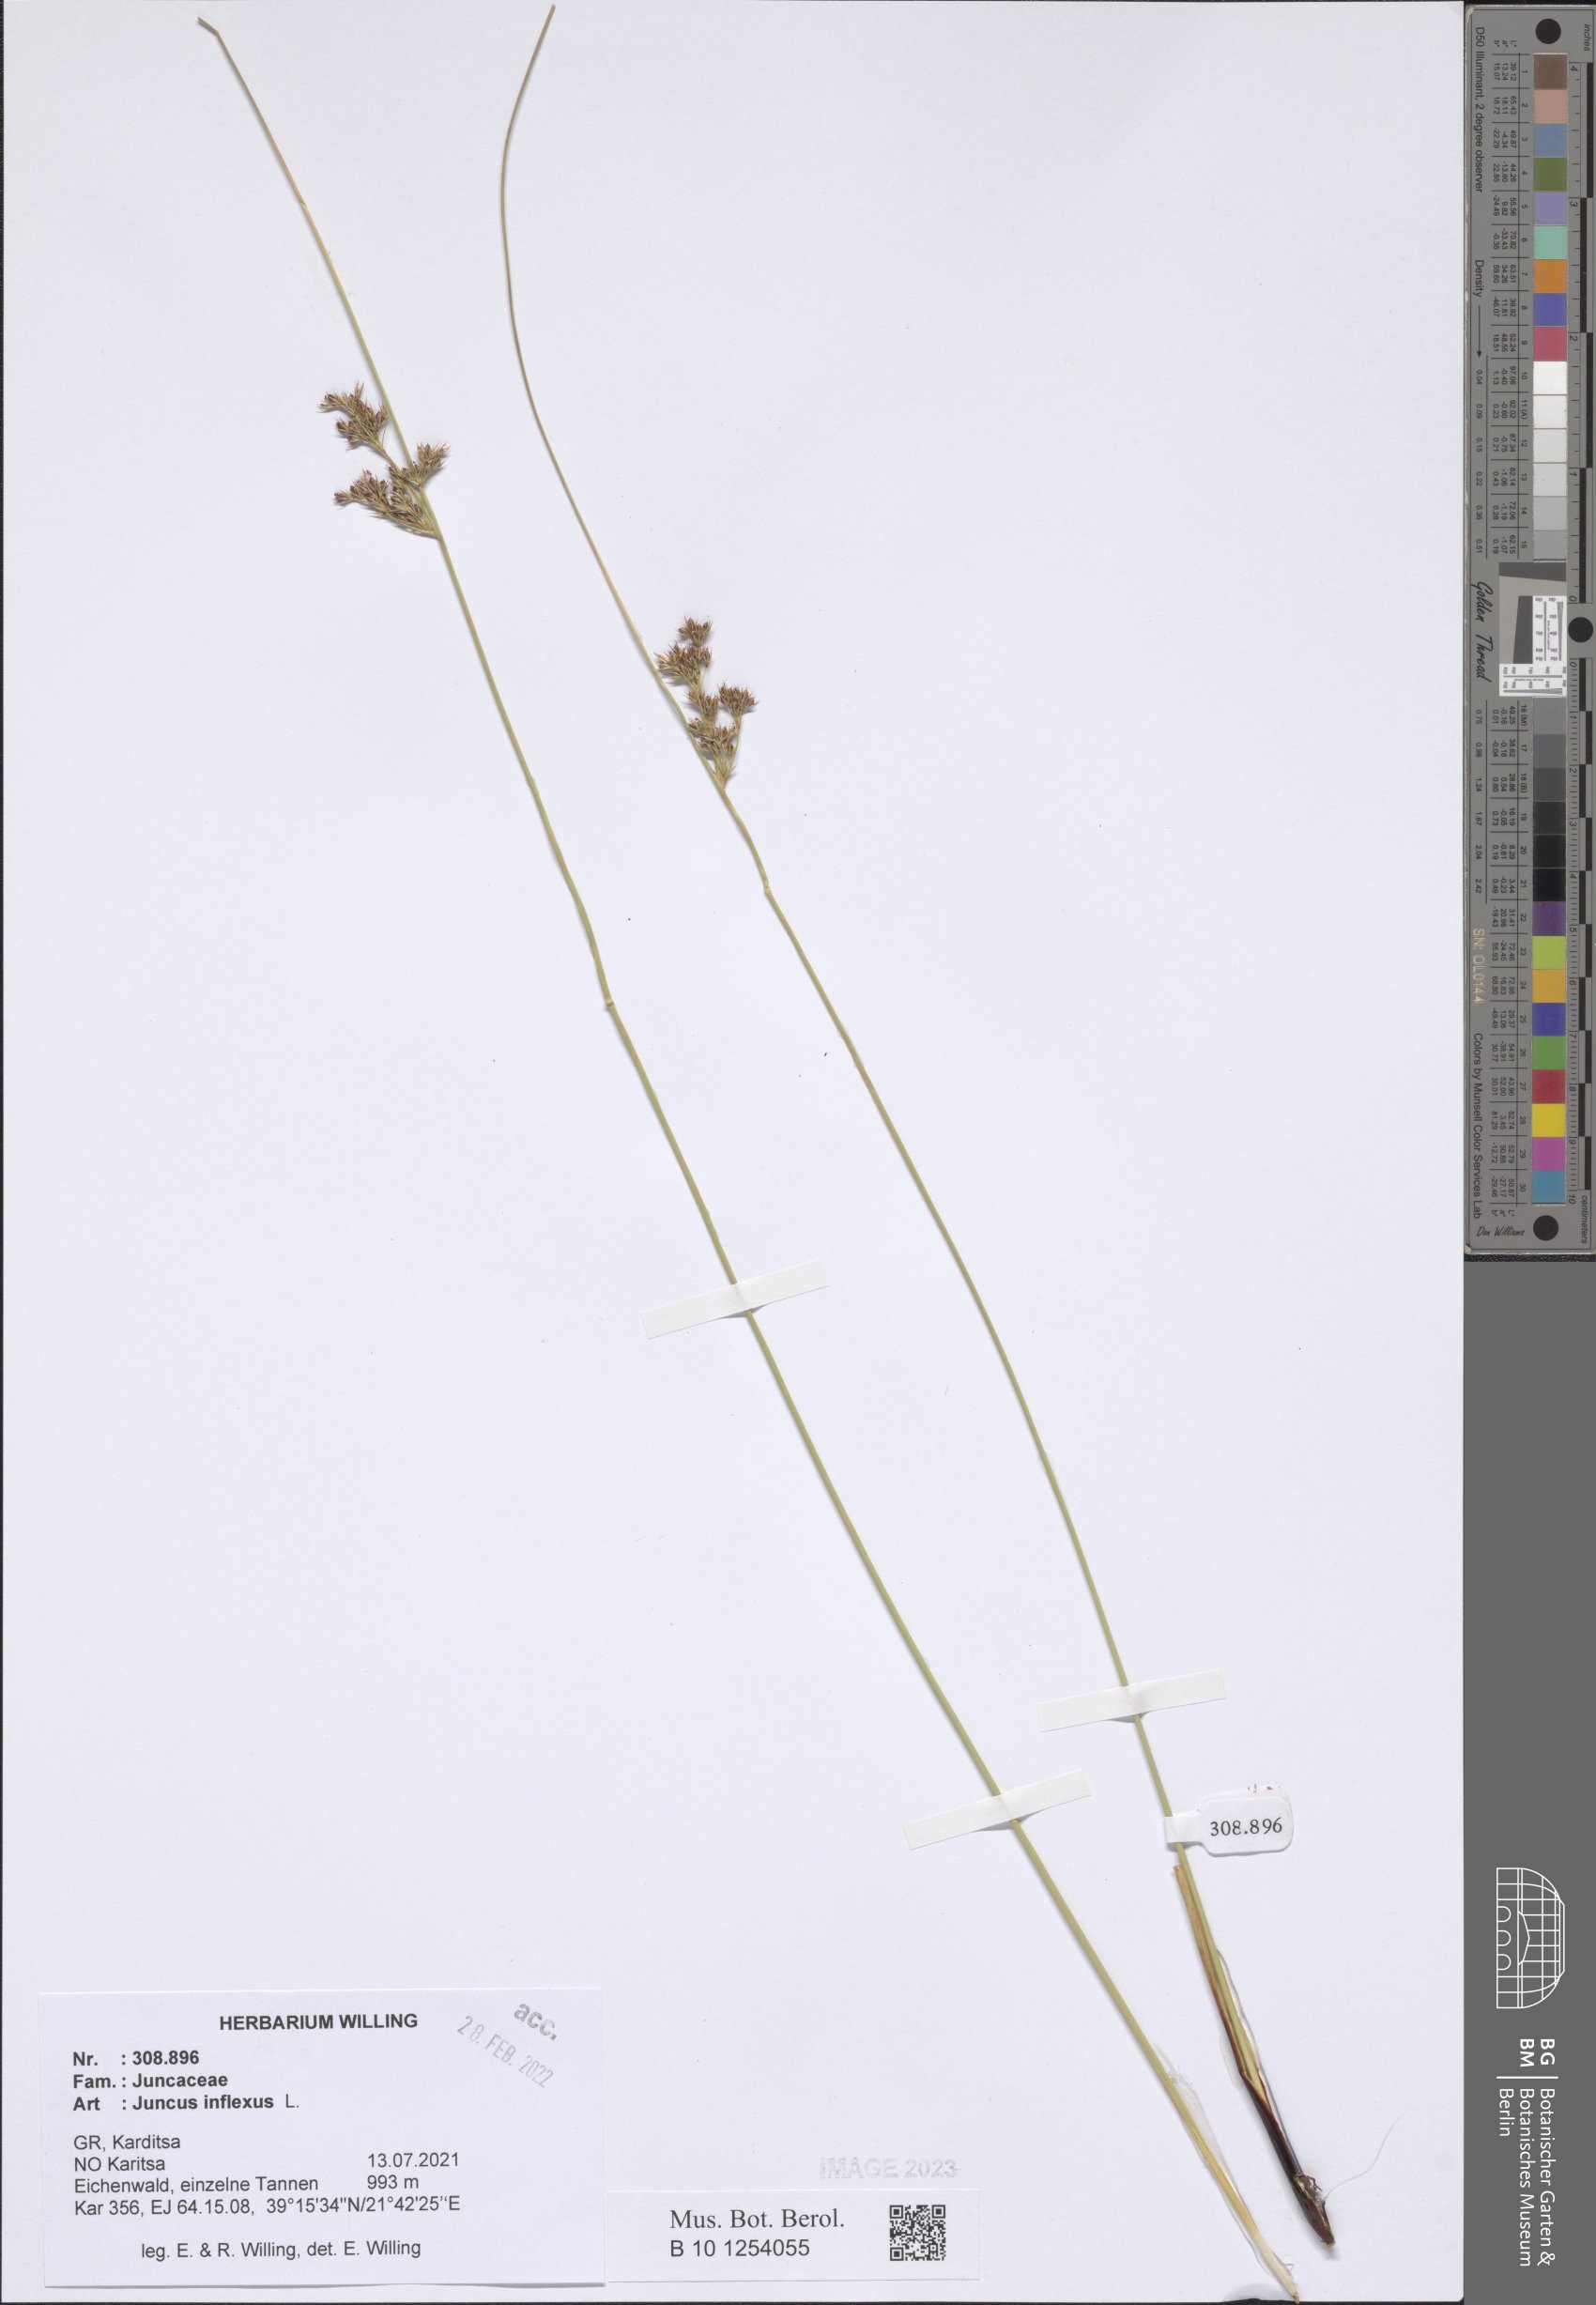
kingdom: Plantae
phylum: Tracheophyta
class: Liliopsida
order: Poales
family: Juncaceae
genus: Juncus
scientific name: Juncus inflexus
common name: Hard rush
